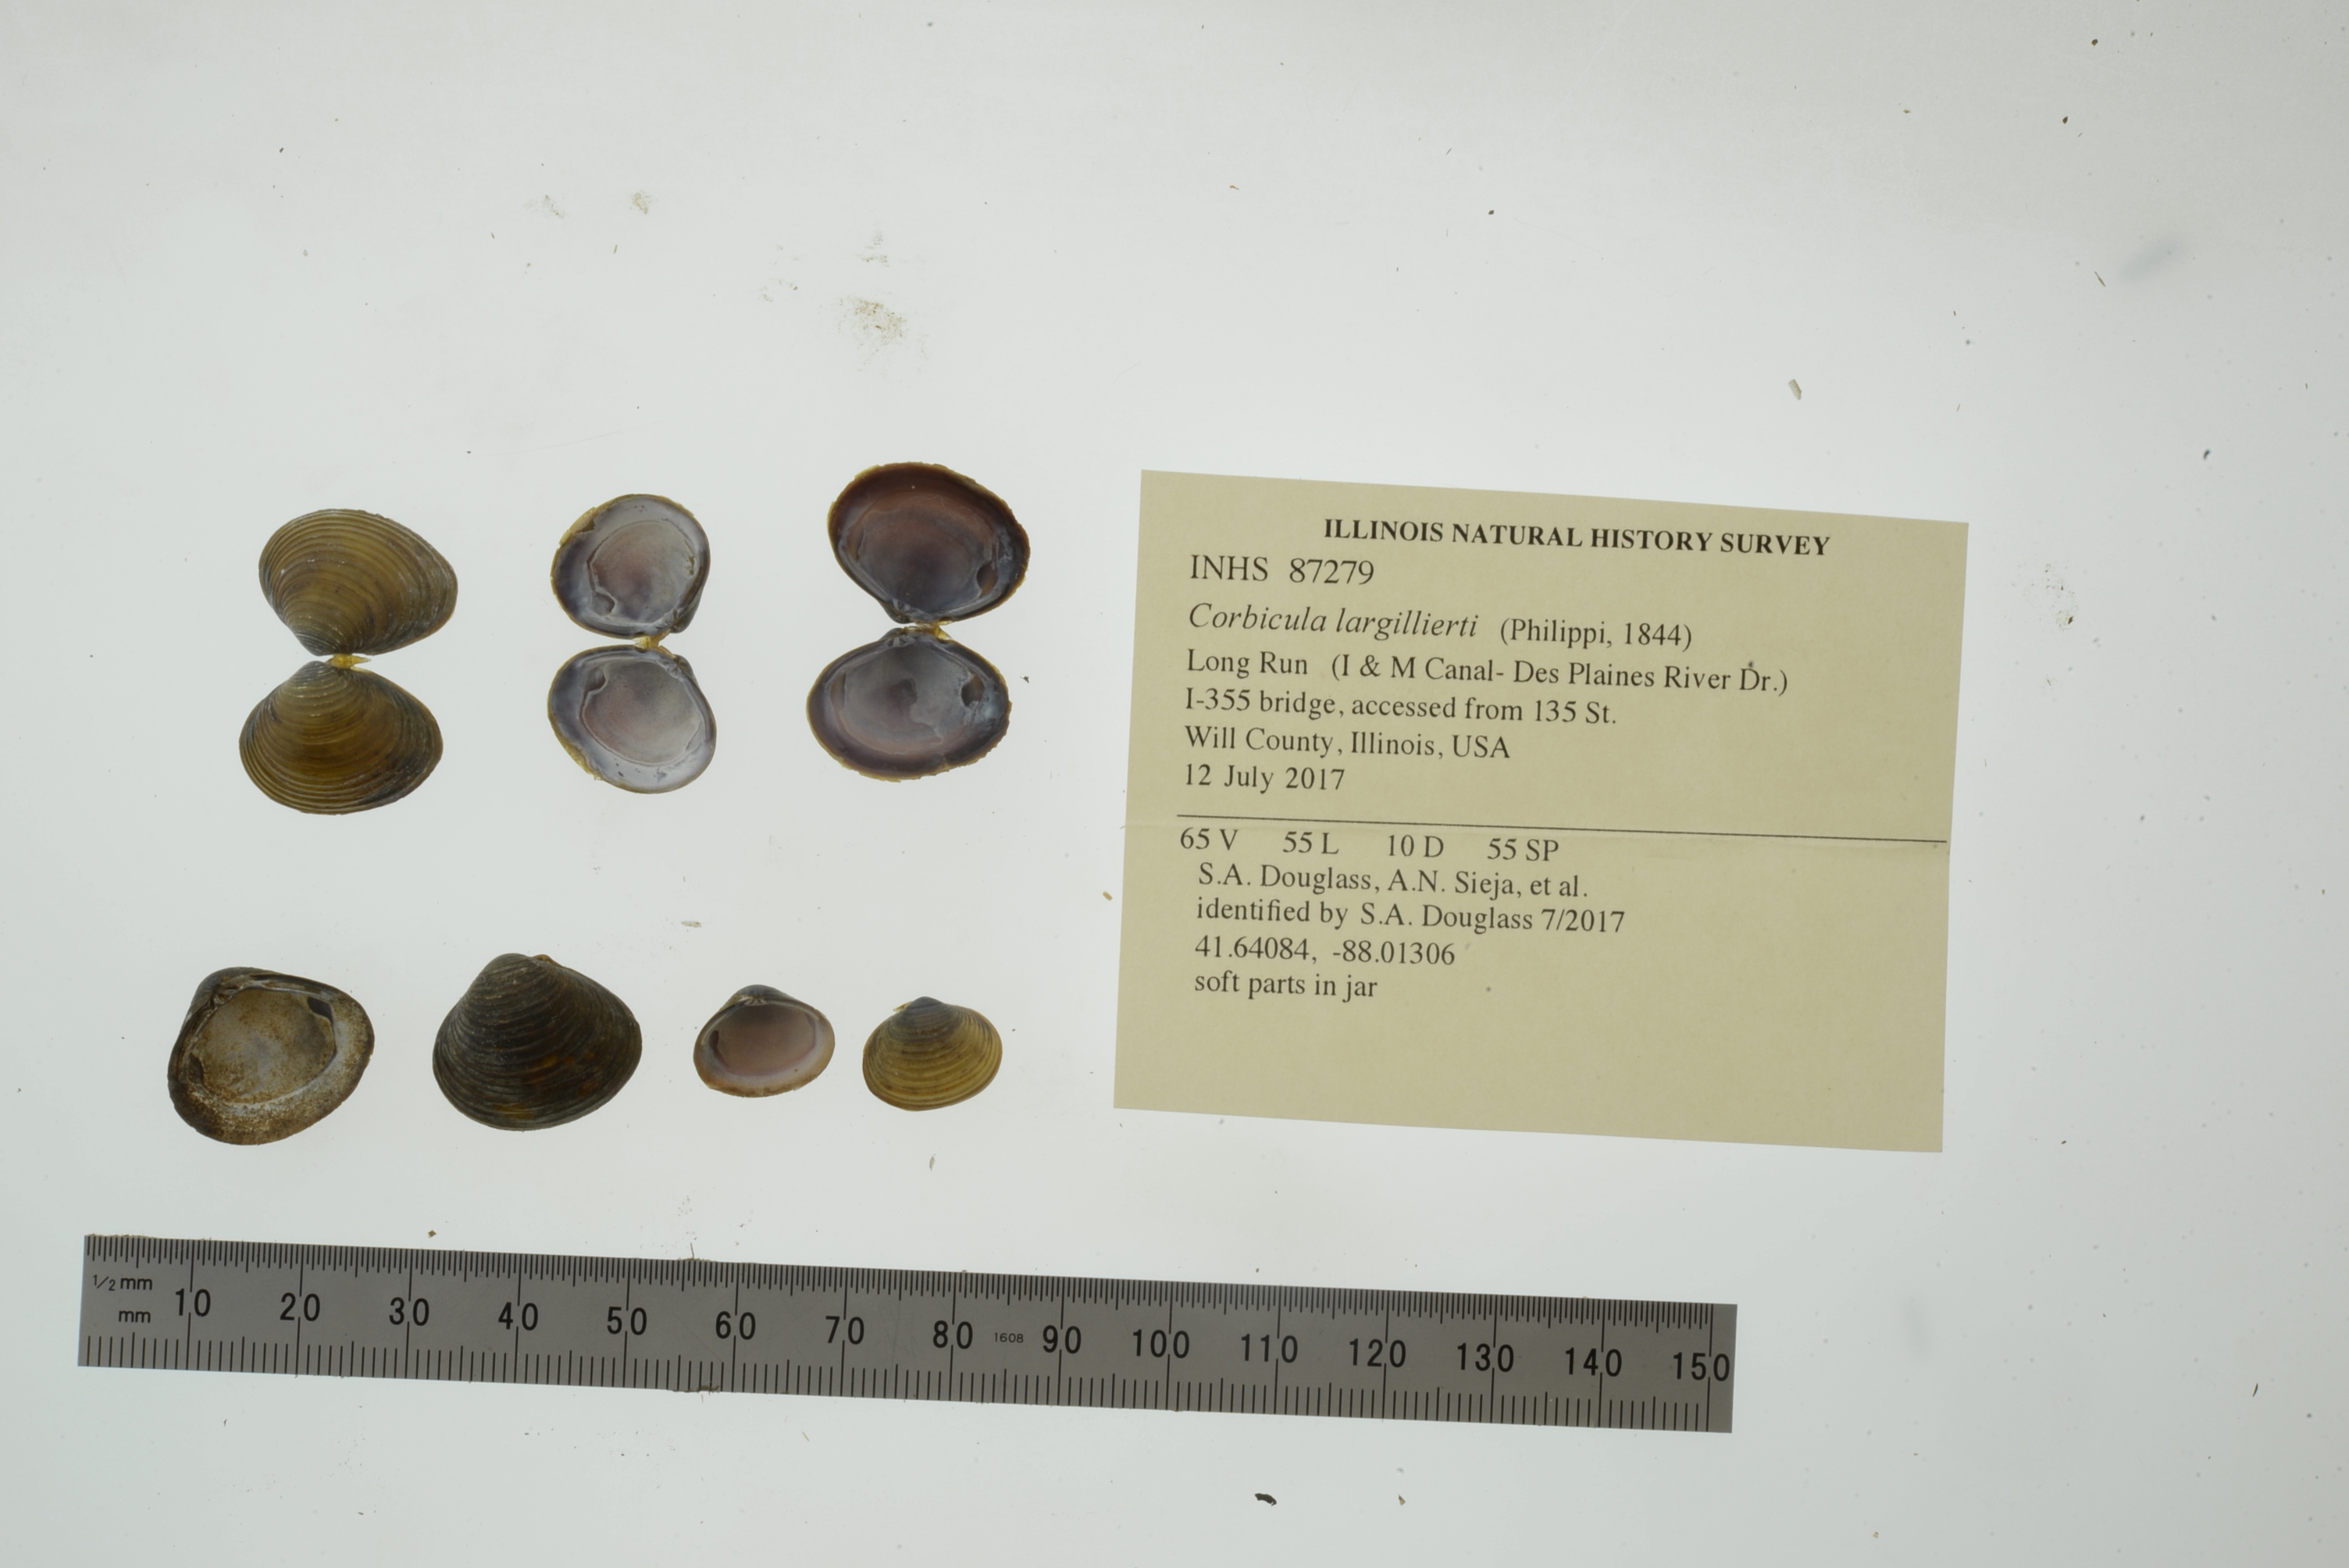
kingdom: Animalia
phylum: Mollusca
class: Bivalvia
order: Venerida
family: Cyrenidae
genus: Corbicula
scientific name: Corbicula largillierti
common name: Purple asian clam
